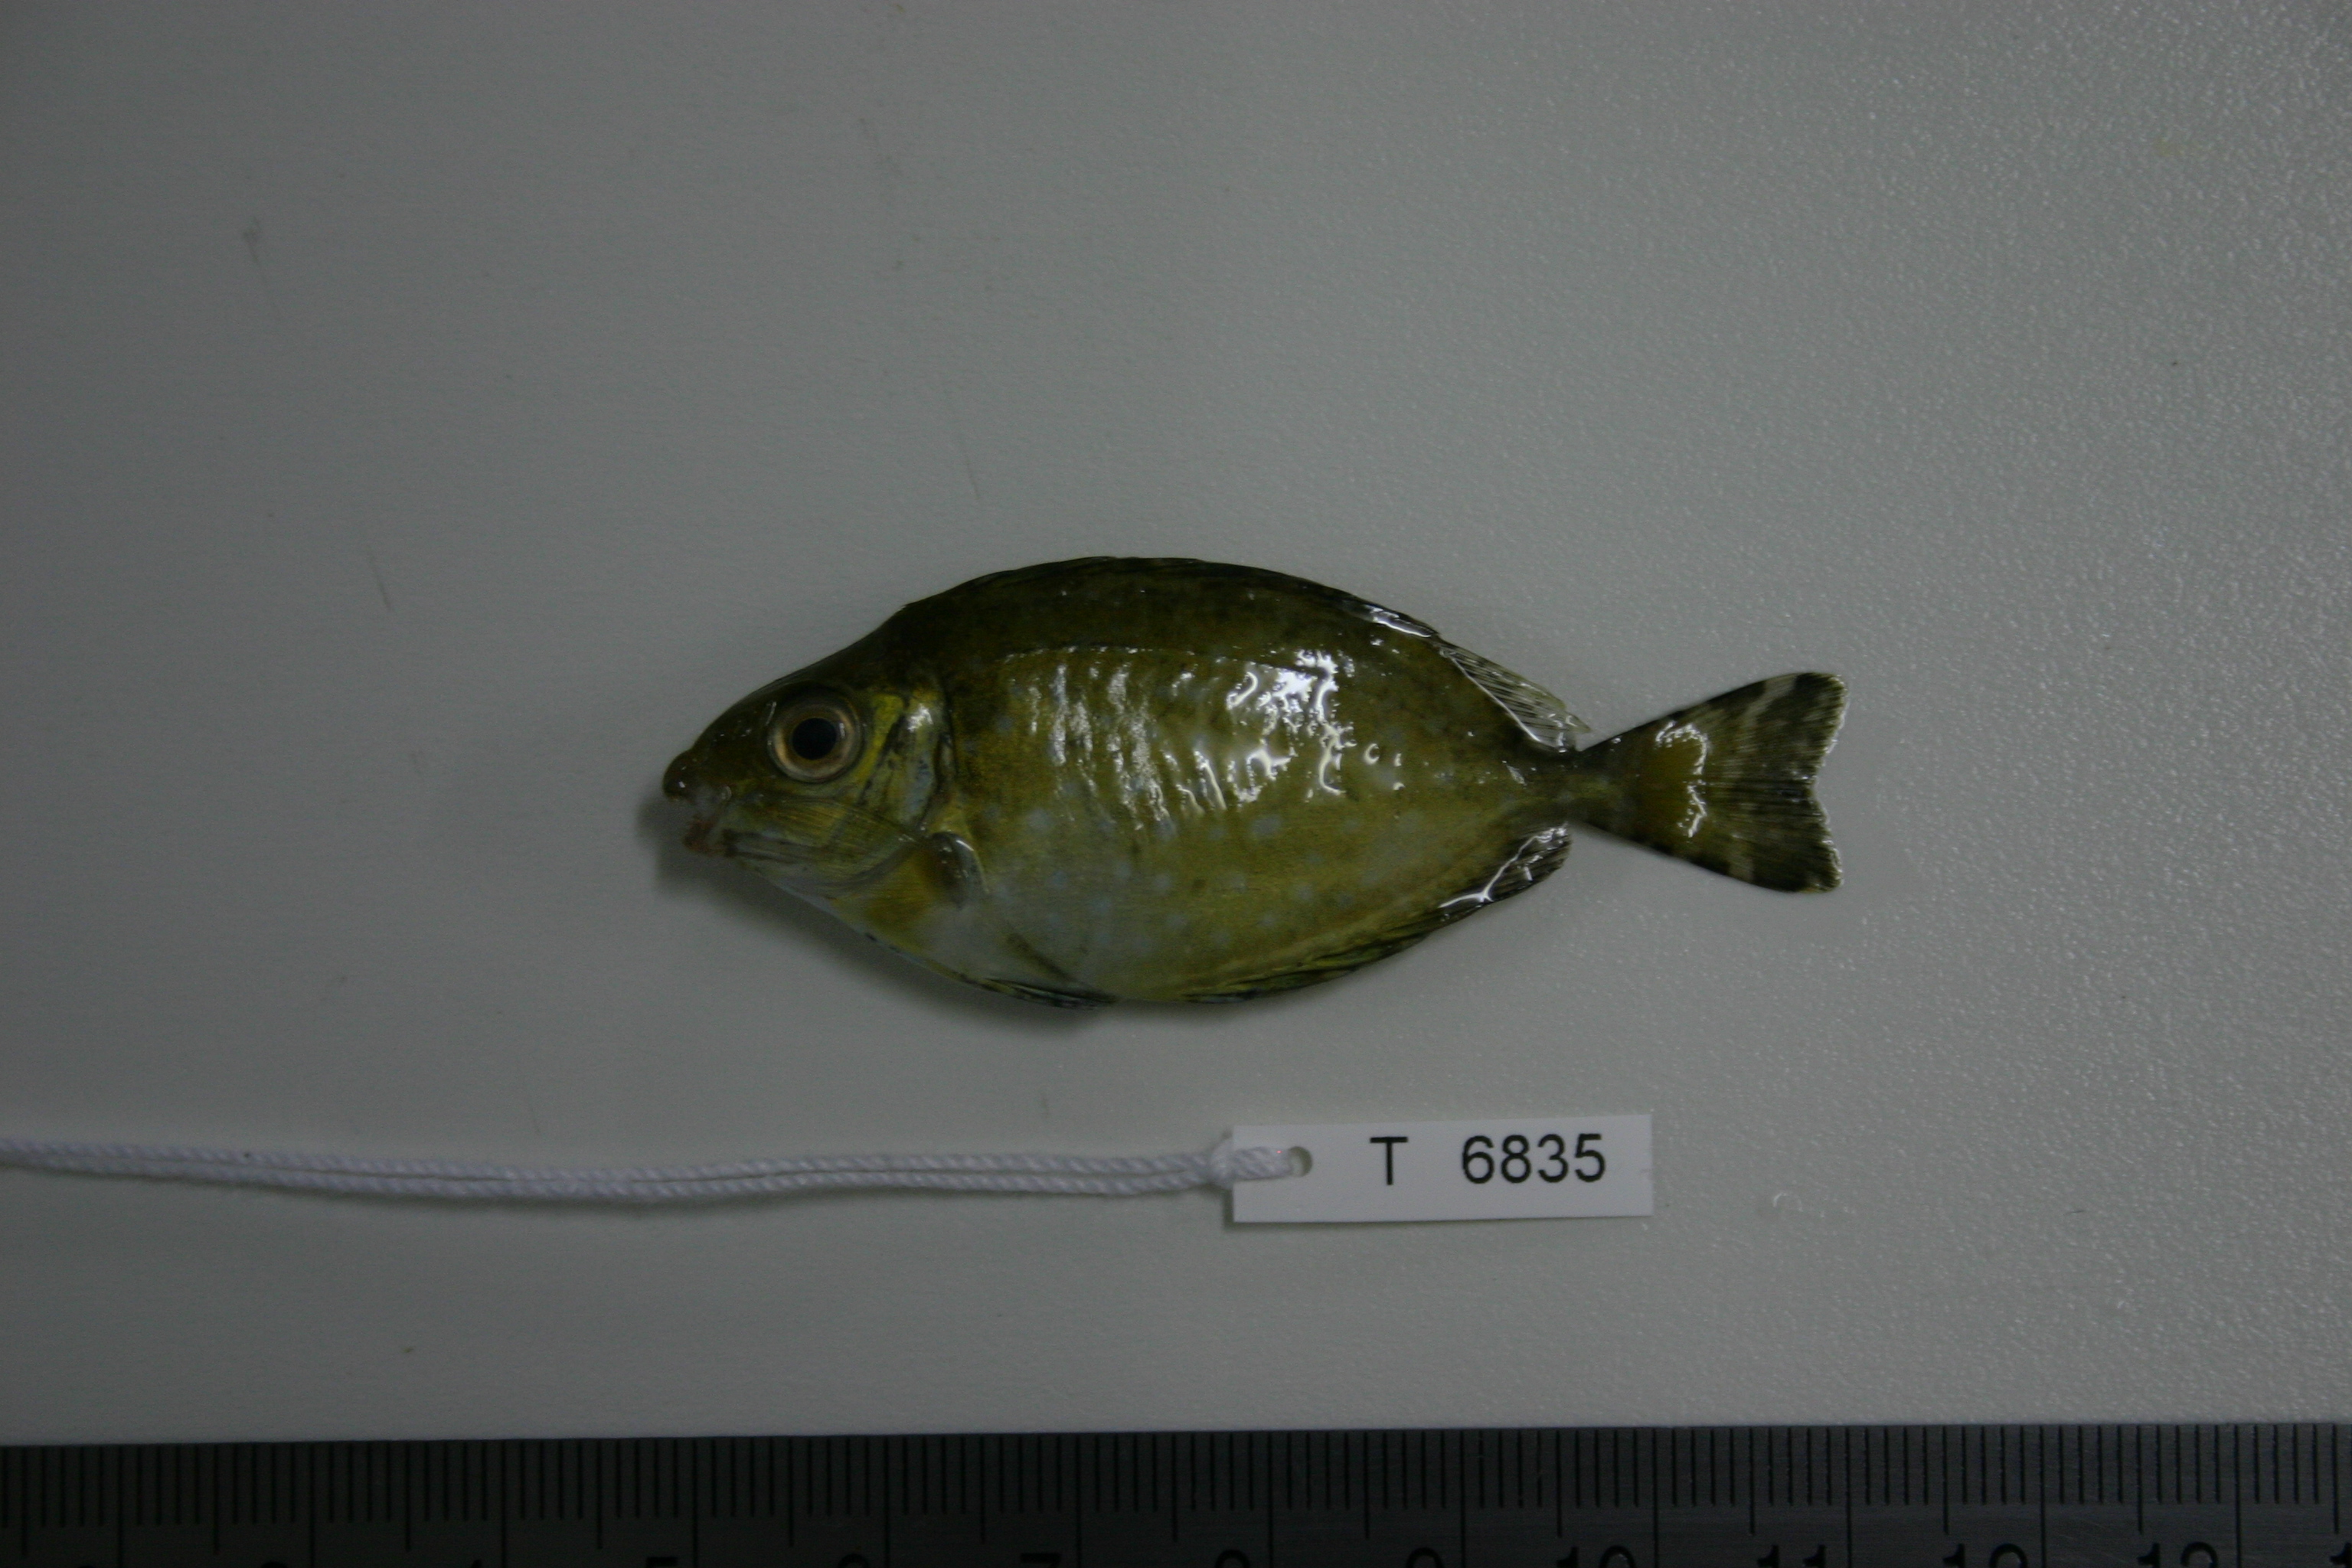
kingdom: Animalia
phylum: Chordata
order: Perciformes
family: Siganidae
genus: Siganus
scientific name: Siganus sutor
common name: Shoemaker spinefoot
